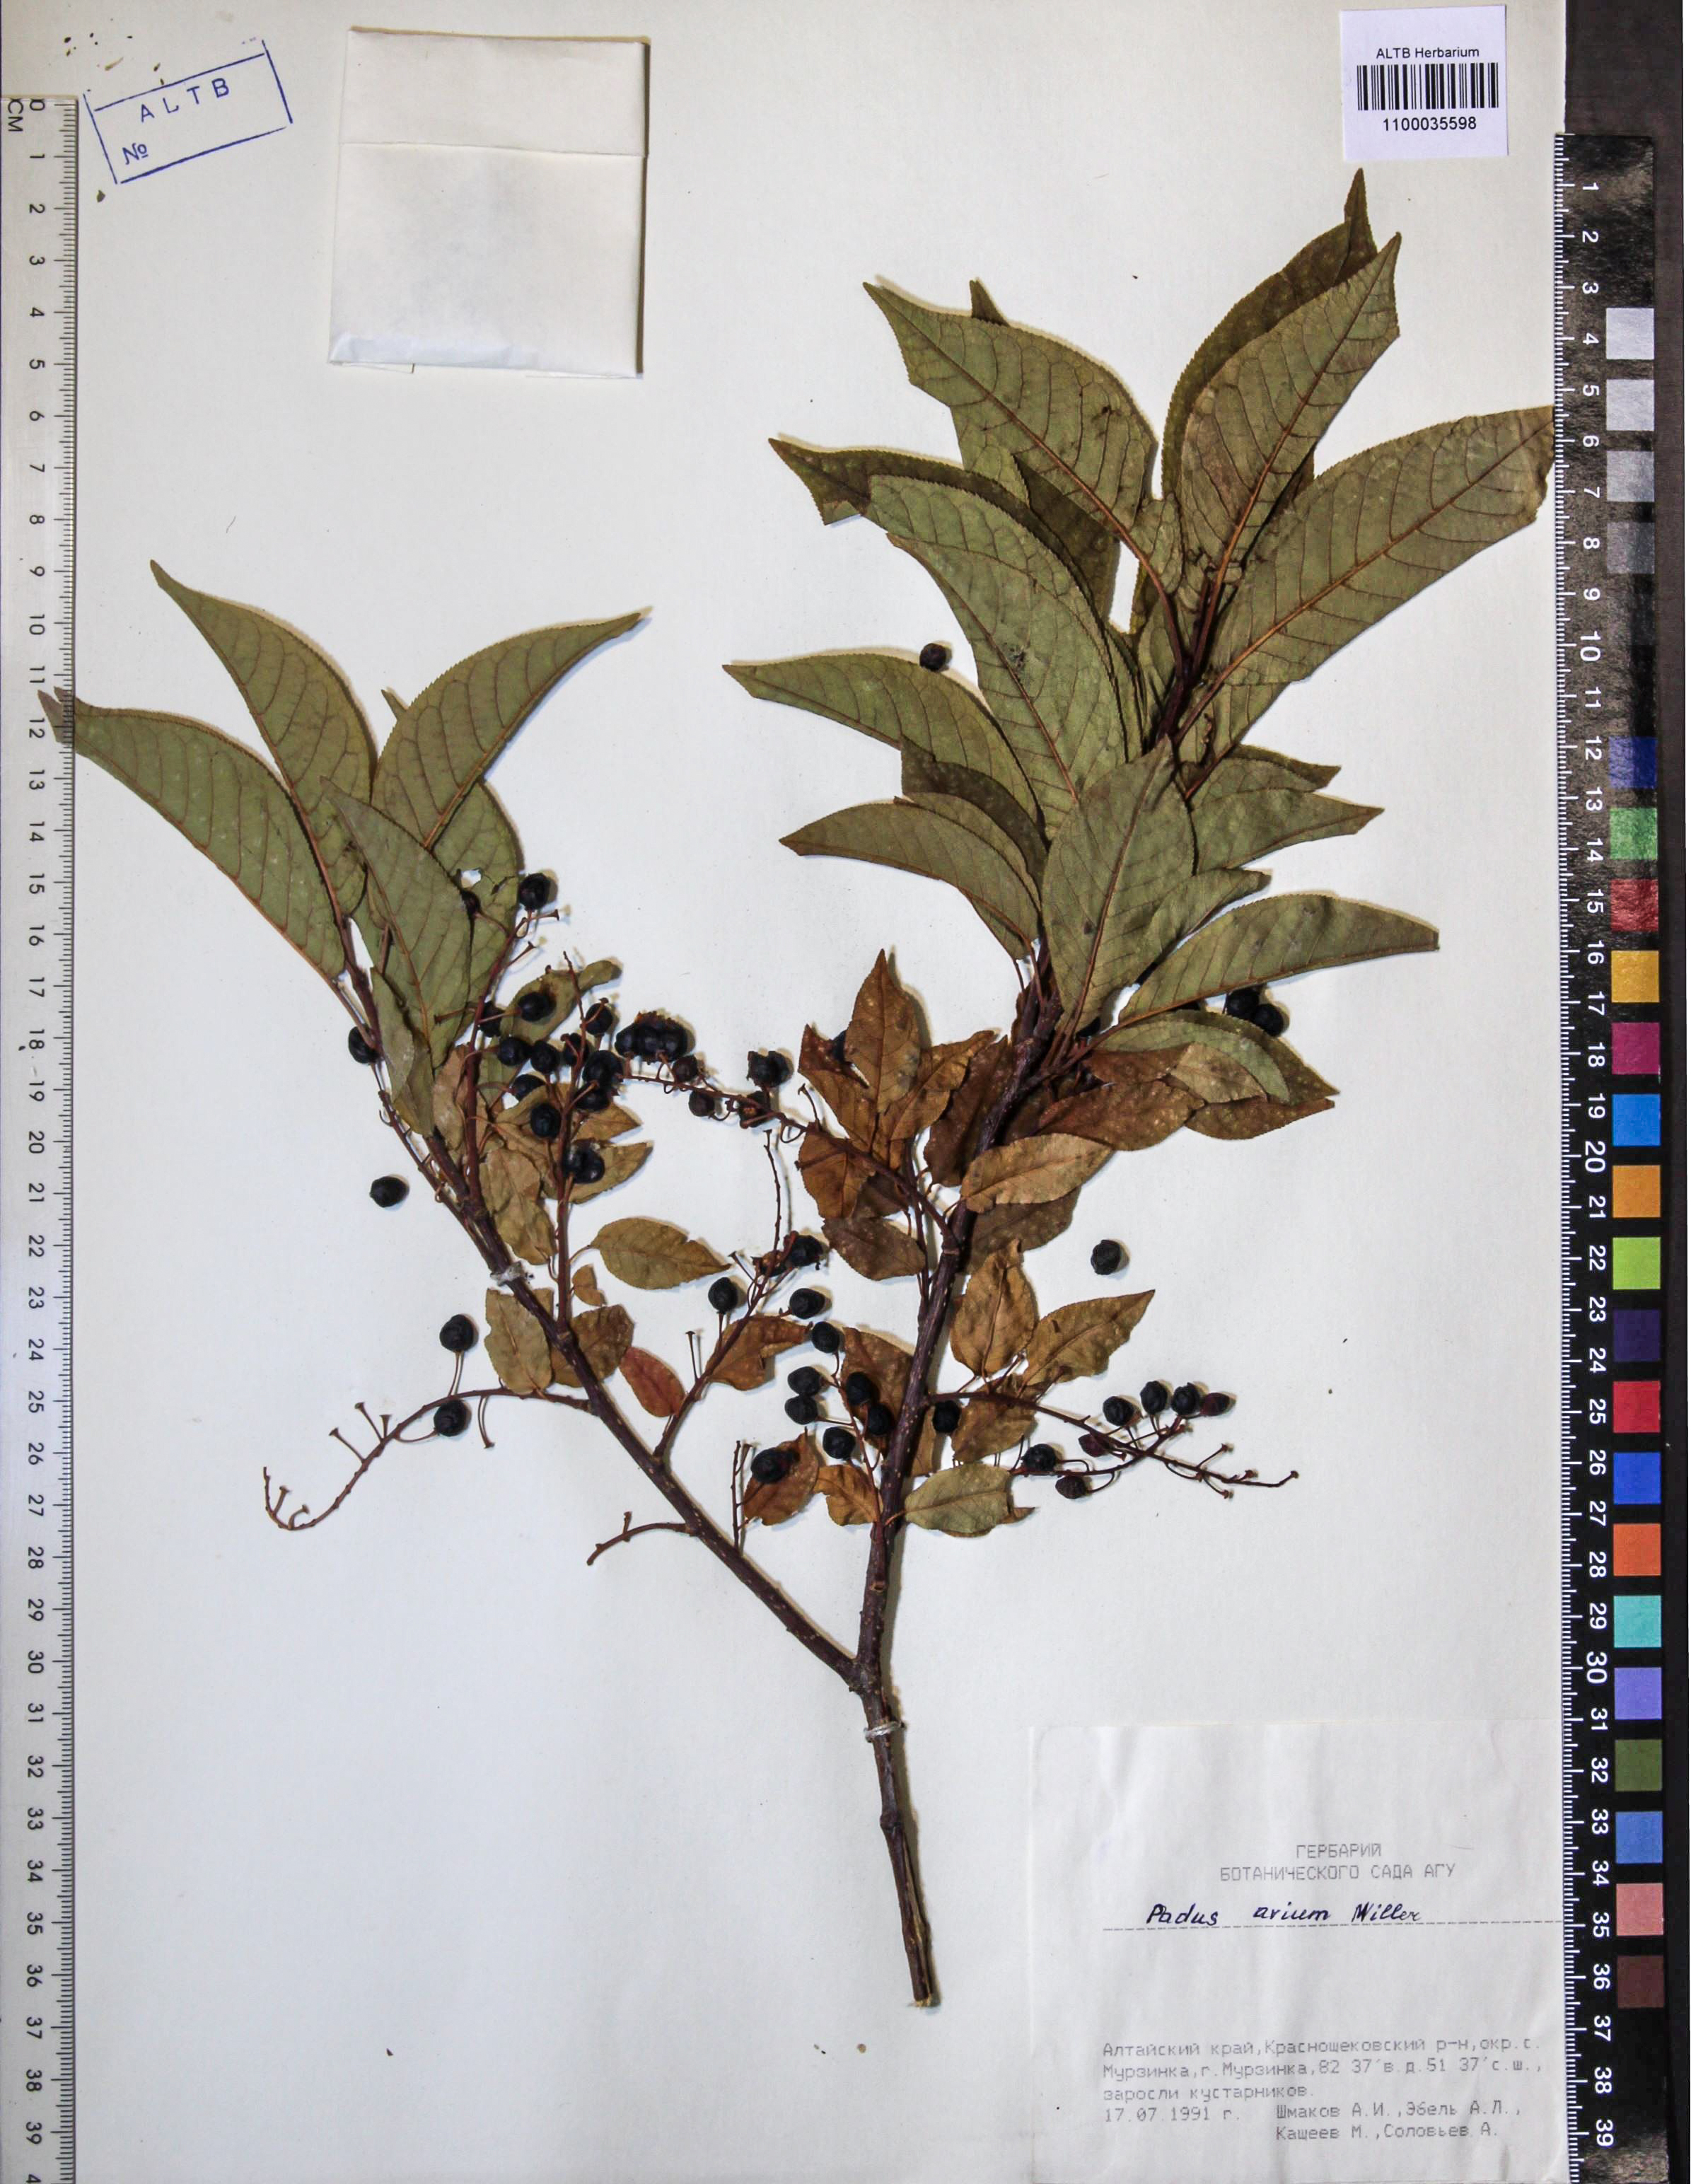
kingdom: Plantae
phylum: Tracheophyta
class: Magnoliopsida
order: Rosales
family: Rosaceae
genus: Prunus
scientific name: Prunus padus
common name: Bird cherry
